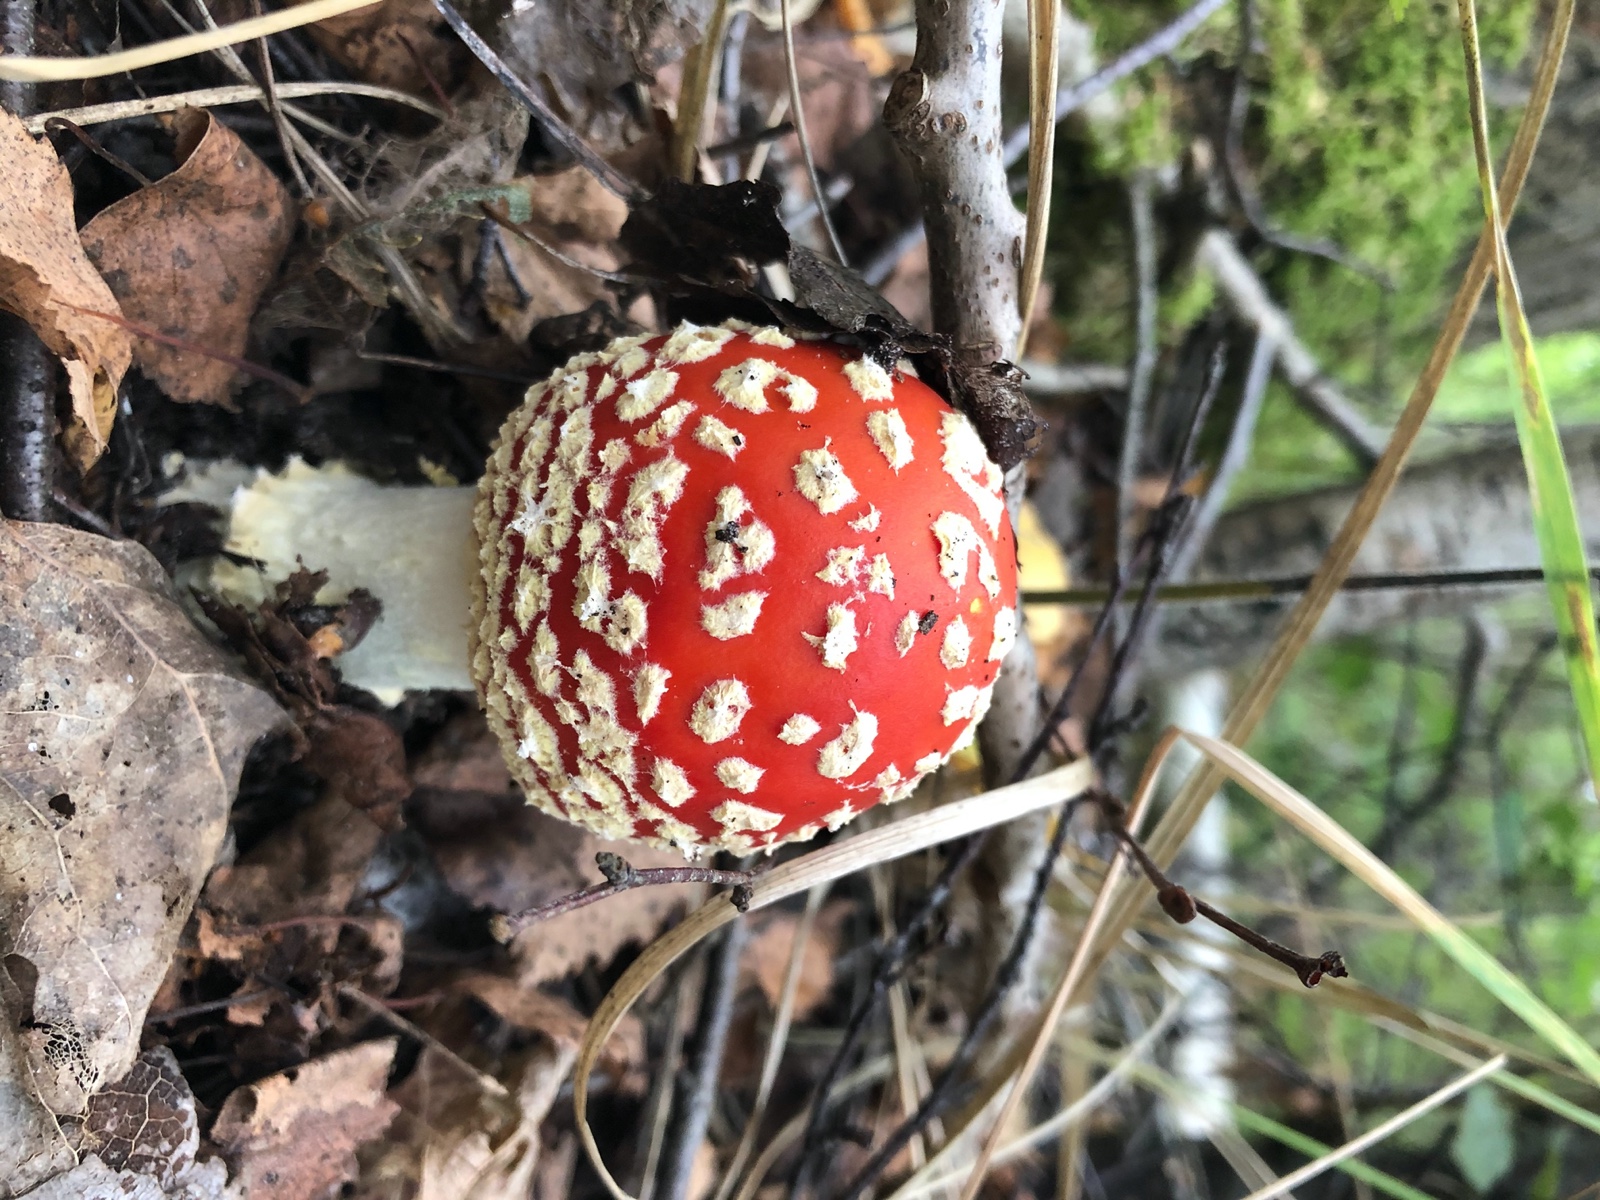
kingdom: Fungi
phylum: Basidiomycota
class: Agaricomycetes
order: Agaricales
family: Amanitaceae
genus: Amanita
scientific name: Amanita muscaria
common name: rød fluesvamp
